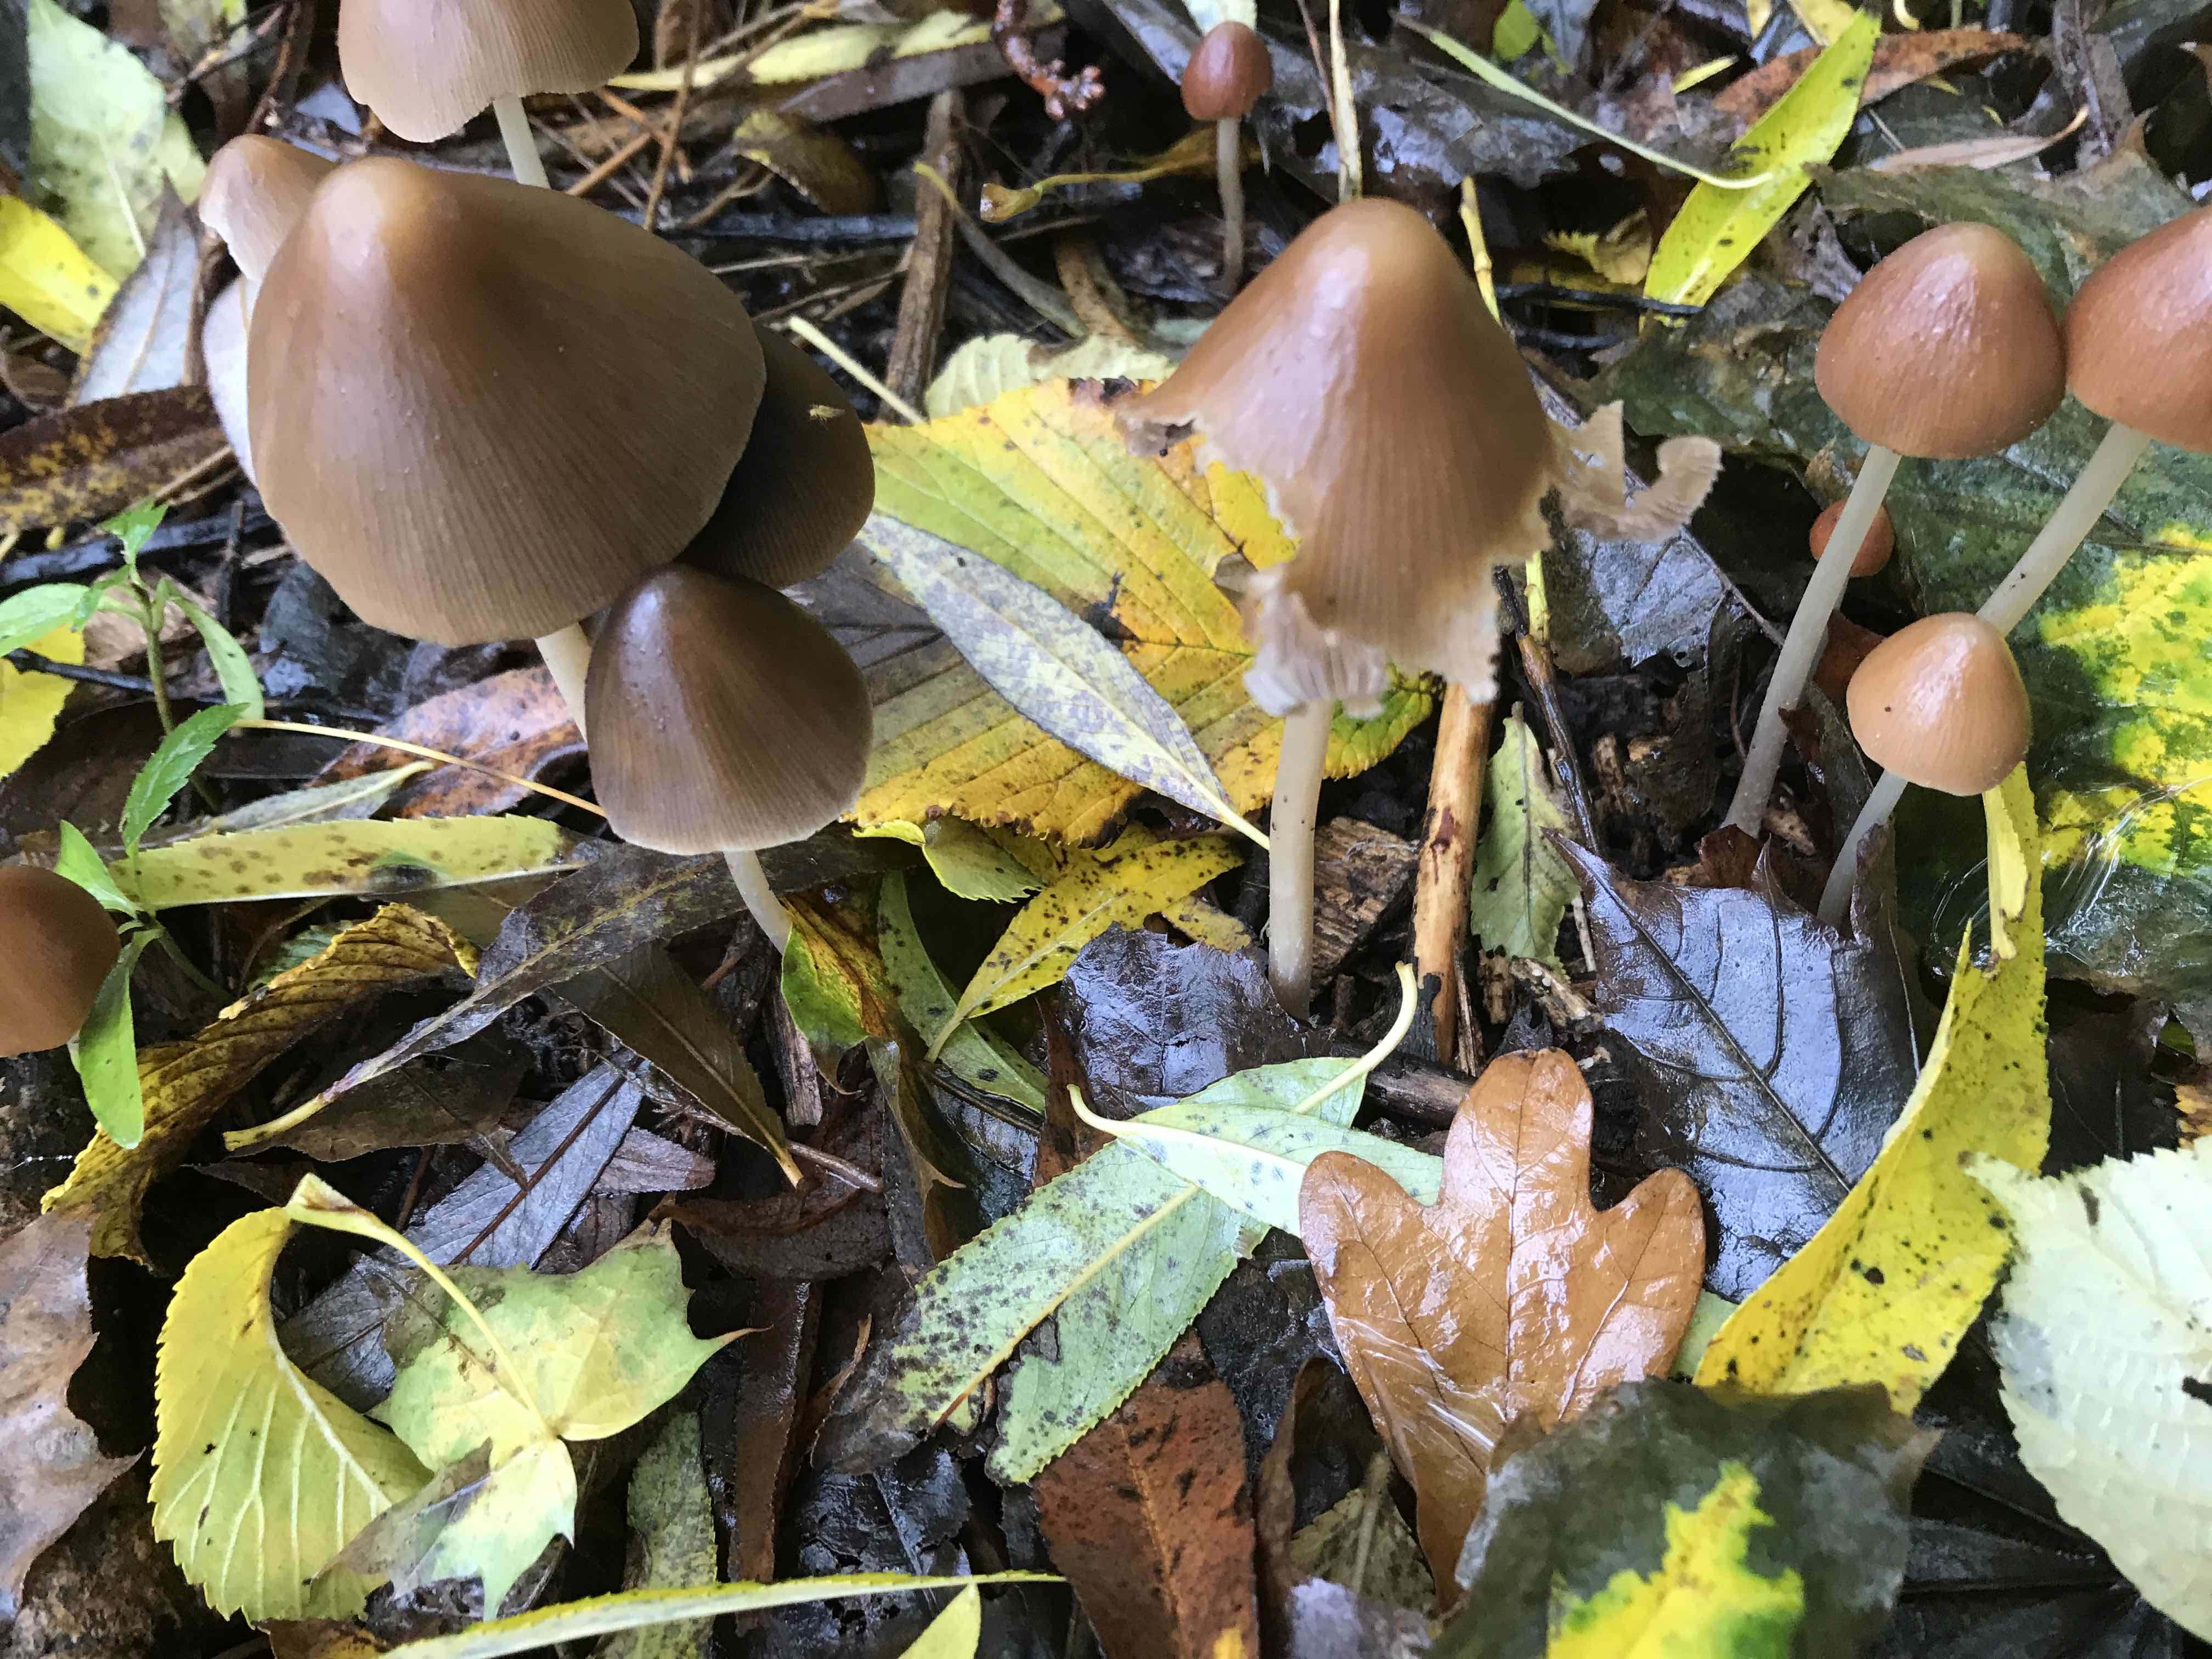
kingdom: Fungi
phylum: Basidiomycota
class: Agaricomycetes
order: Agaricales
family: Psathyrellaceae
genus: Parasola
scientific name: Parasola conopilea
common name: kegle-hjulhat
